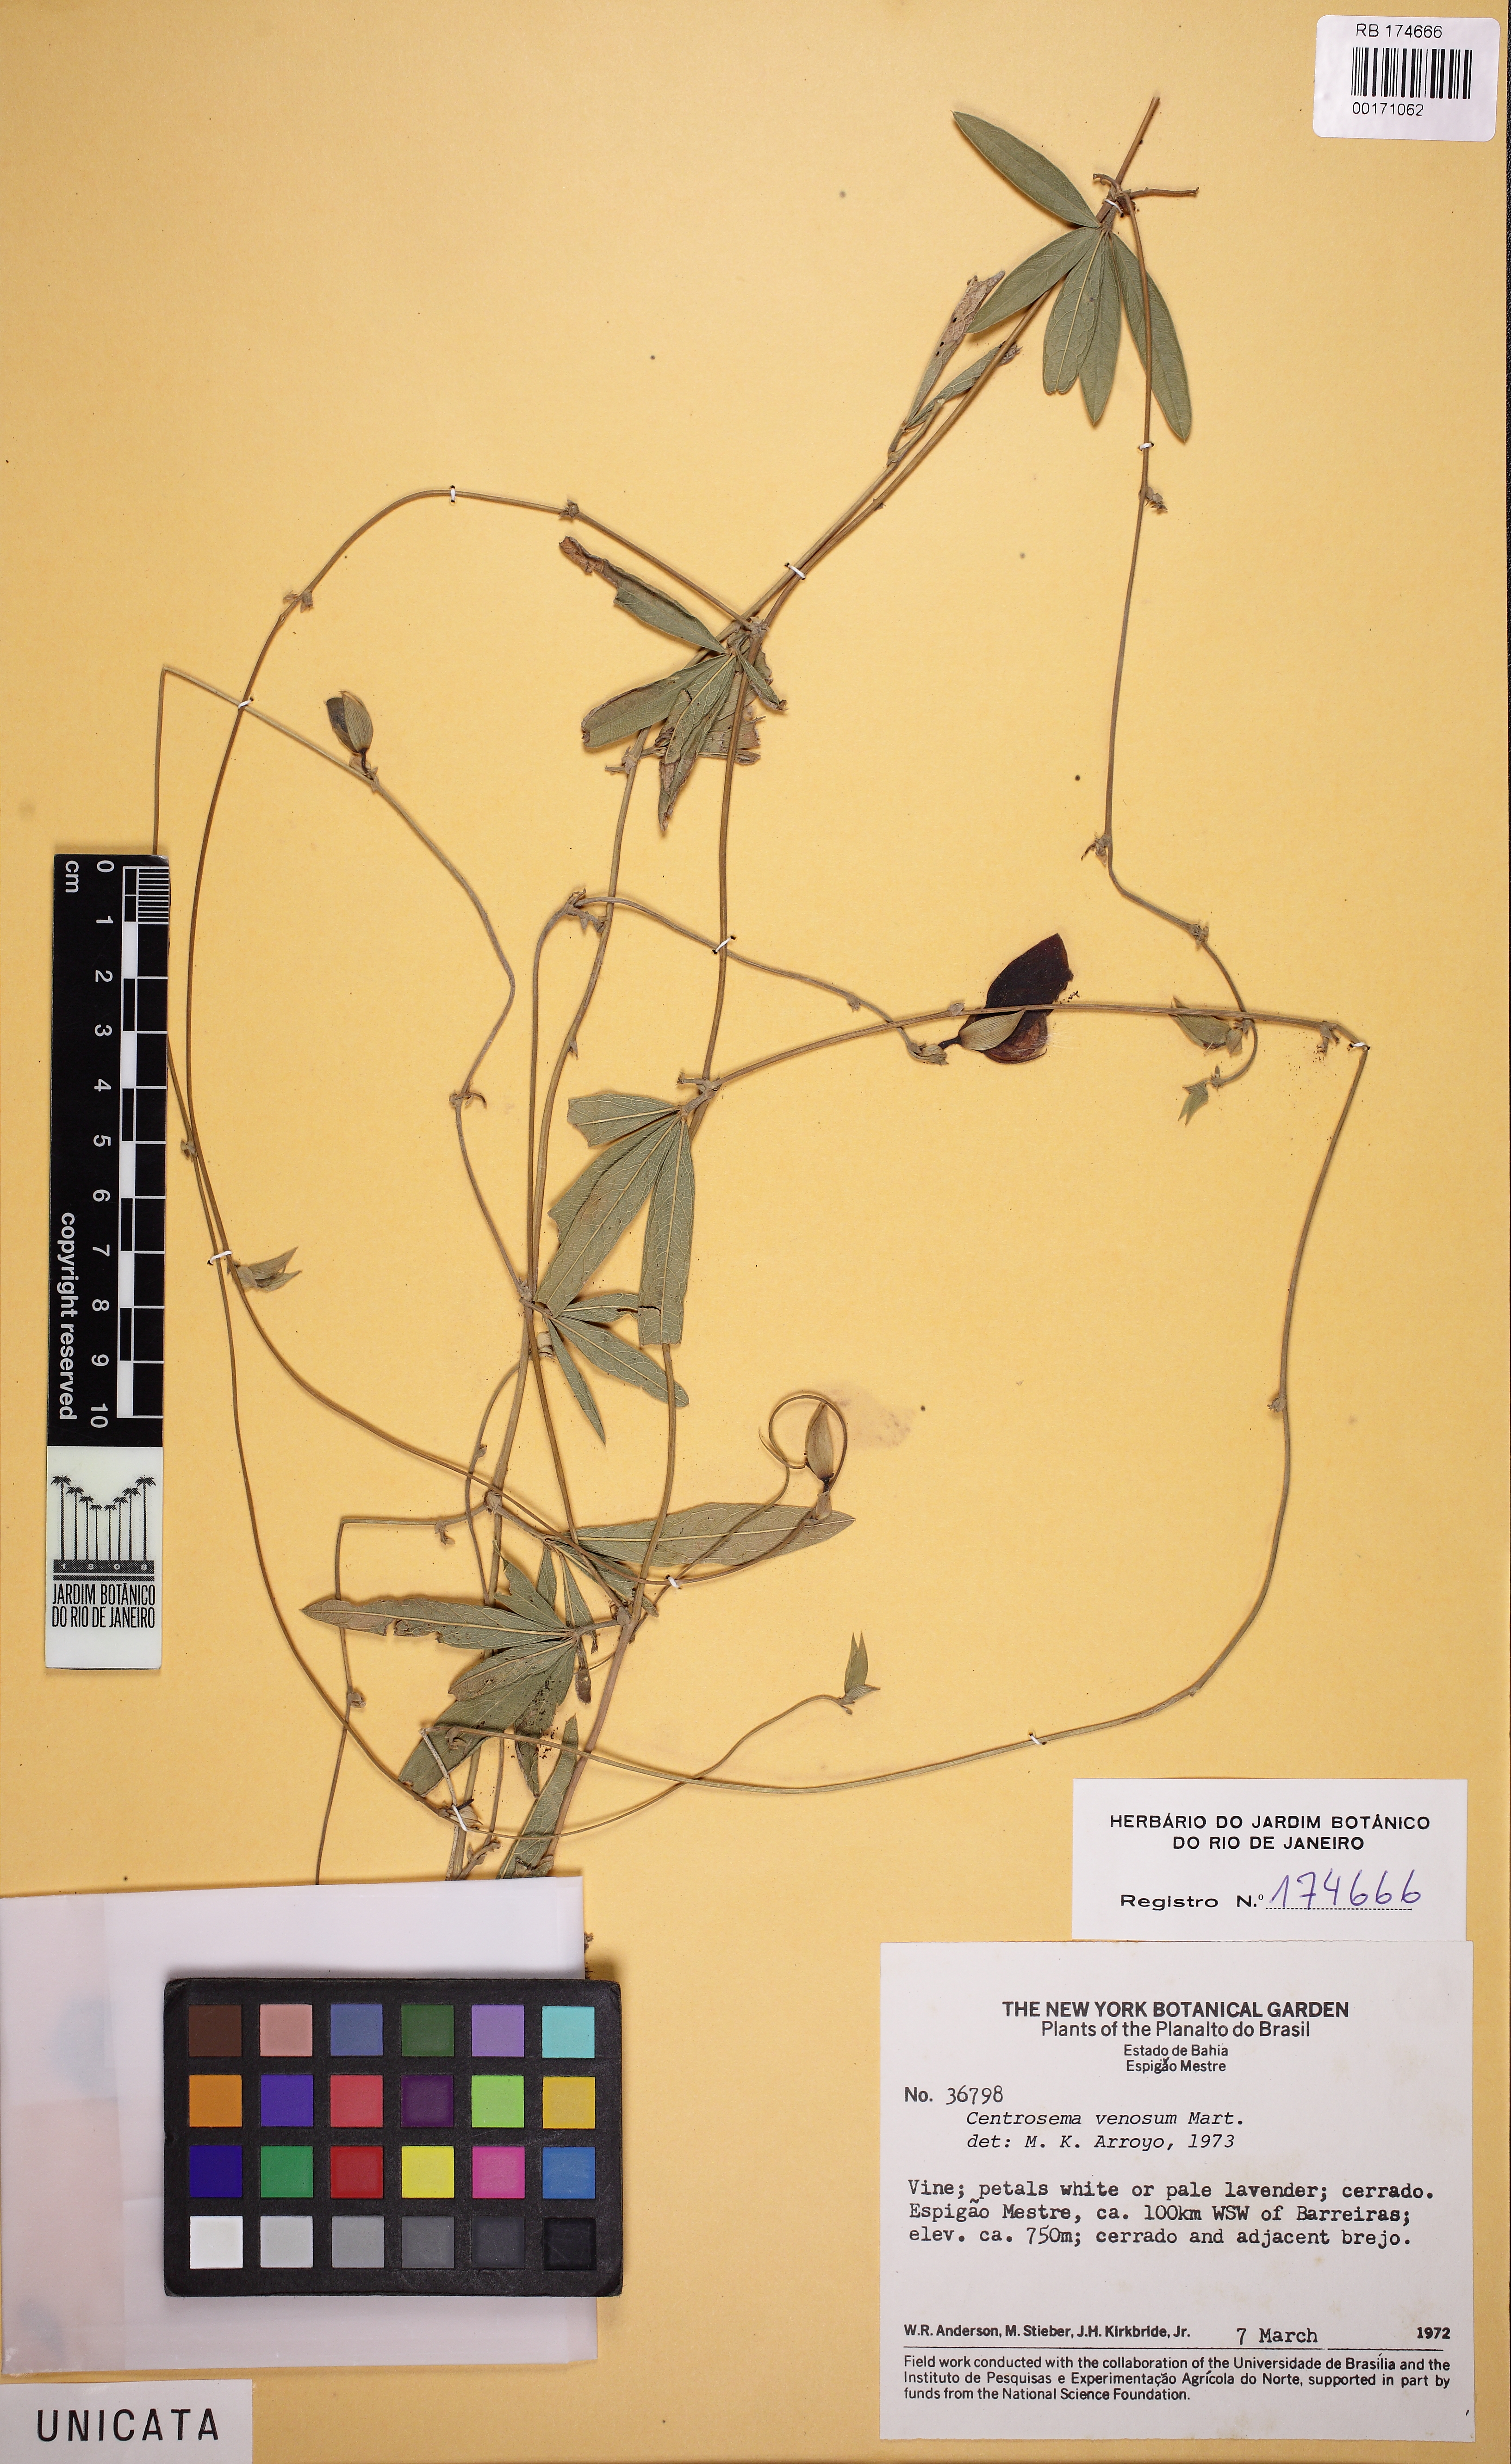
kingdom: Plantae
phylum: Tracheophyta
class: Magnoliopsida
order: Fabales
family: Fabaceae
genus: Centrosema
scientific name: Centrosema venosum
